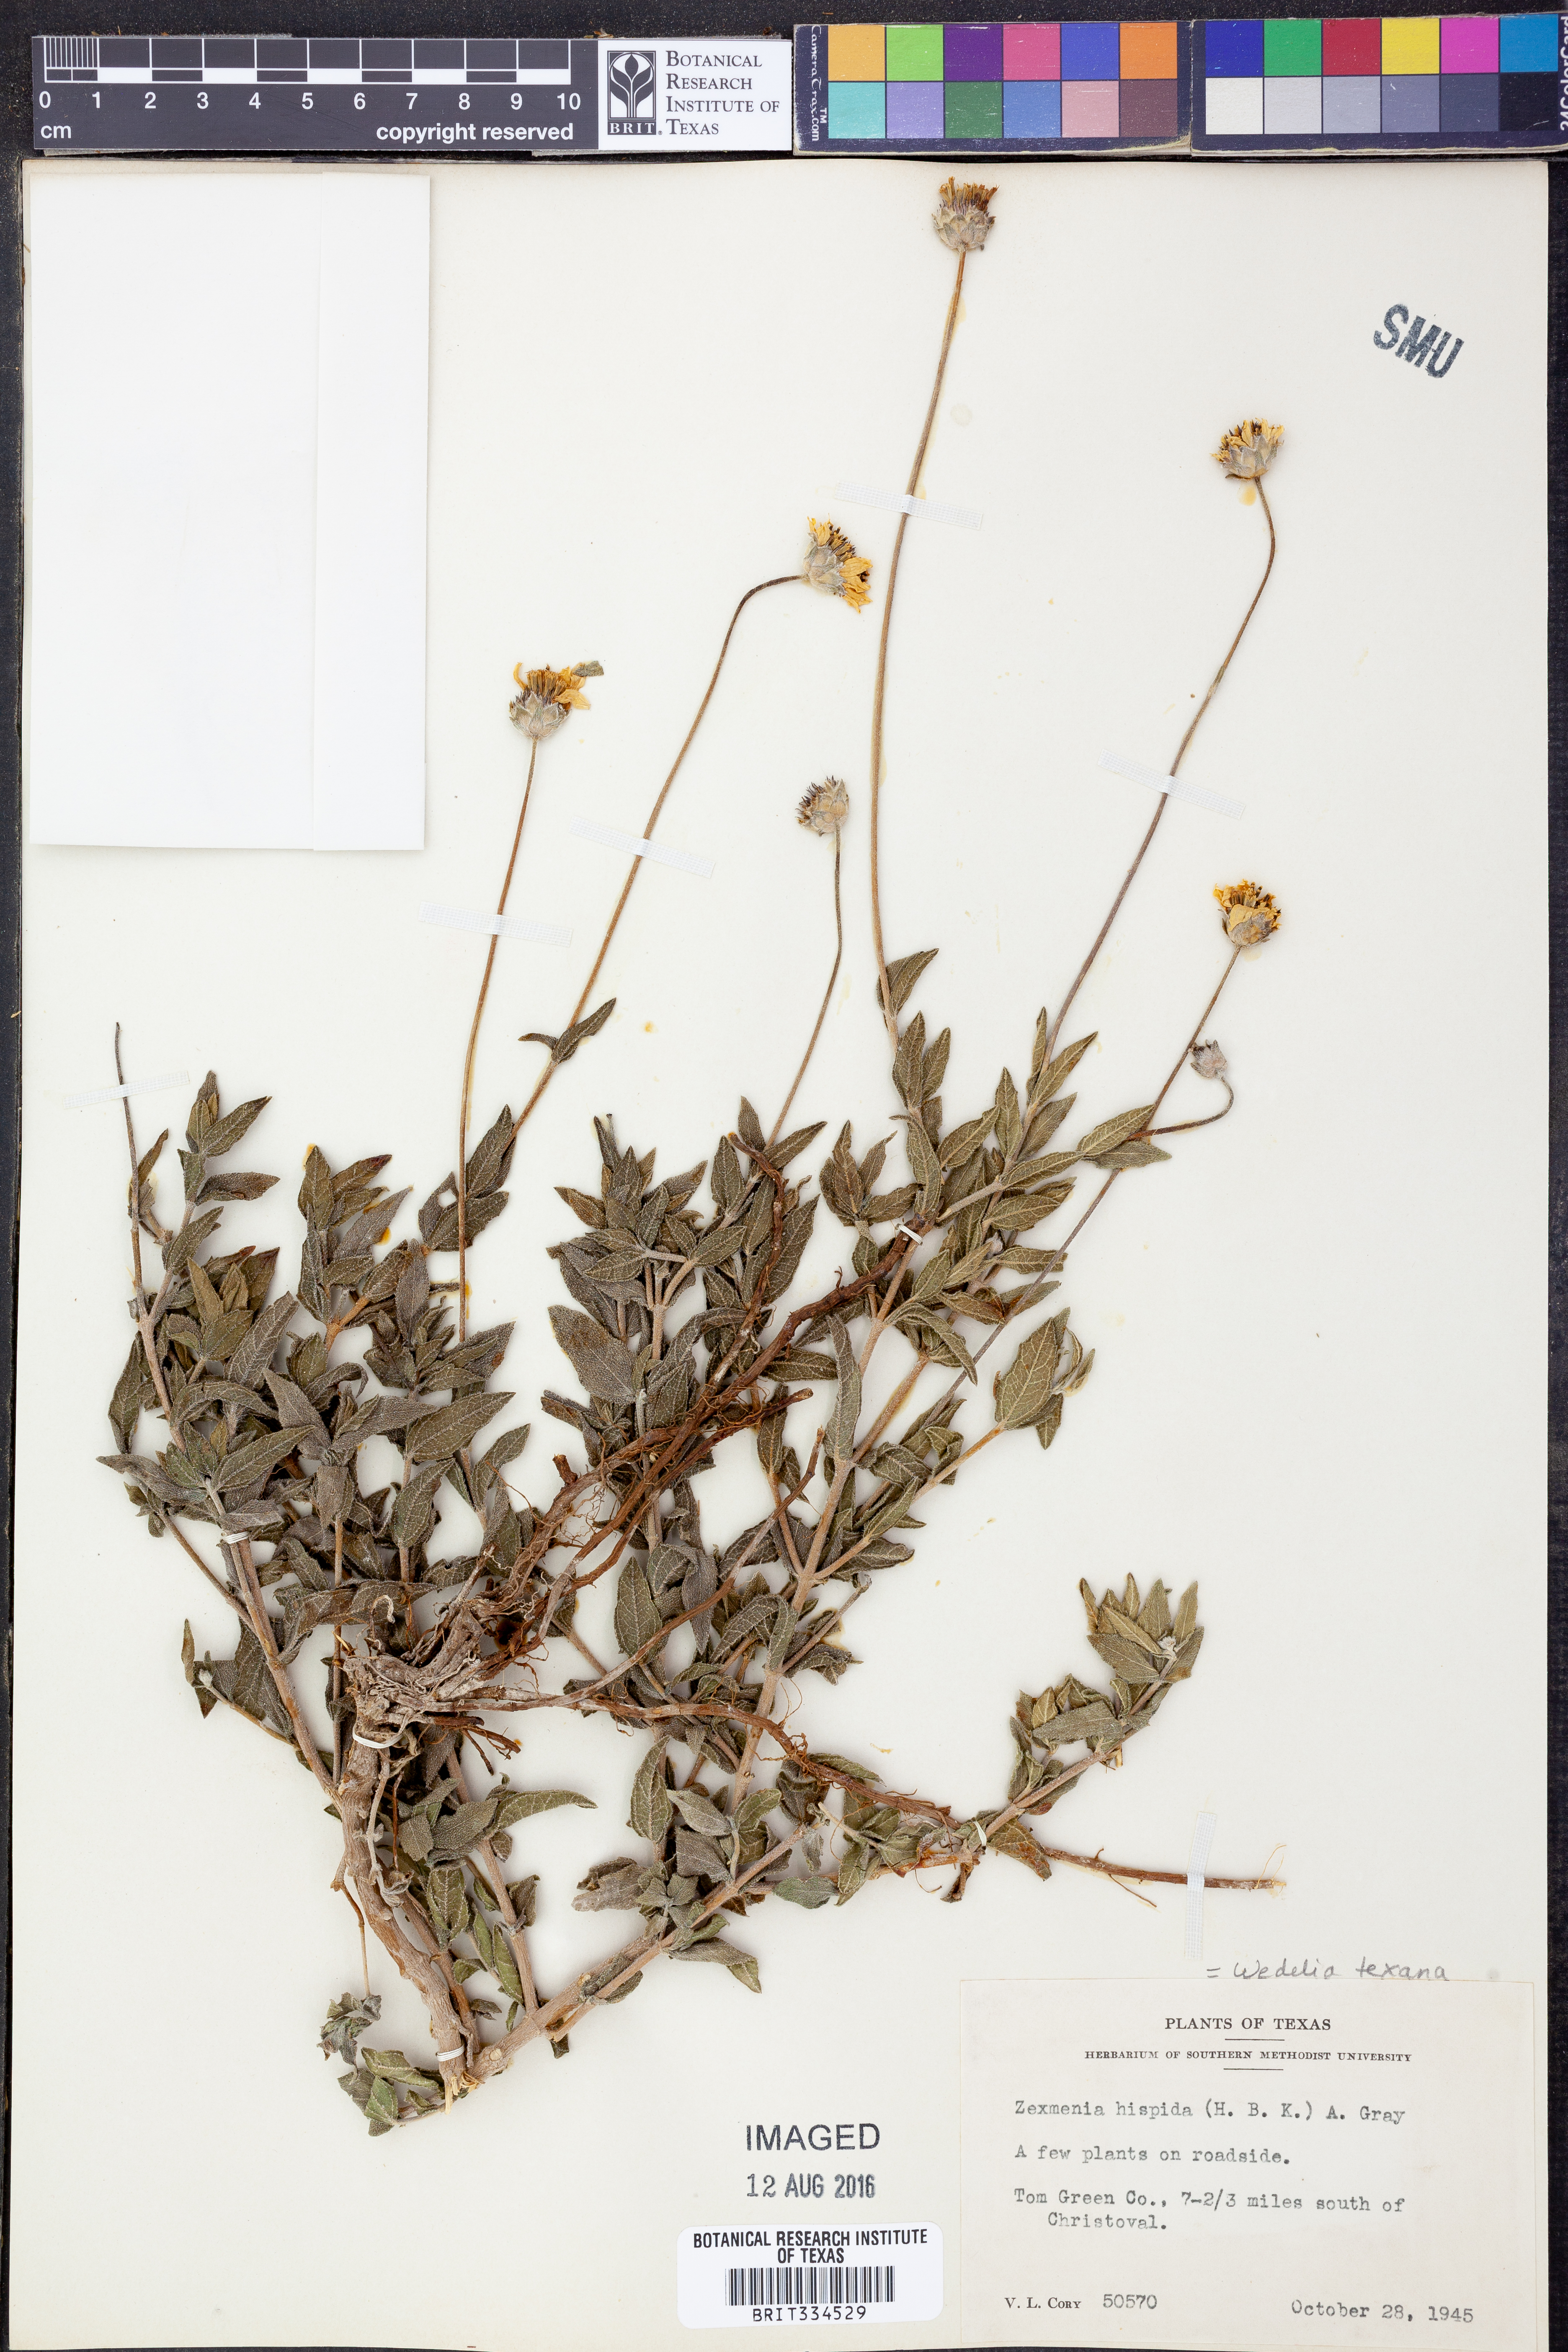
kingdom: Plantae
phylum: Tracheophyta
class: Magnoliopsida
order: Asterales
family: Asteraceae
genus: Wedelia
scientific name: Wedelia acapulcensis
